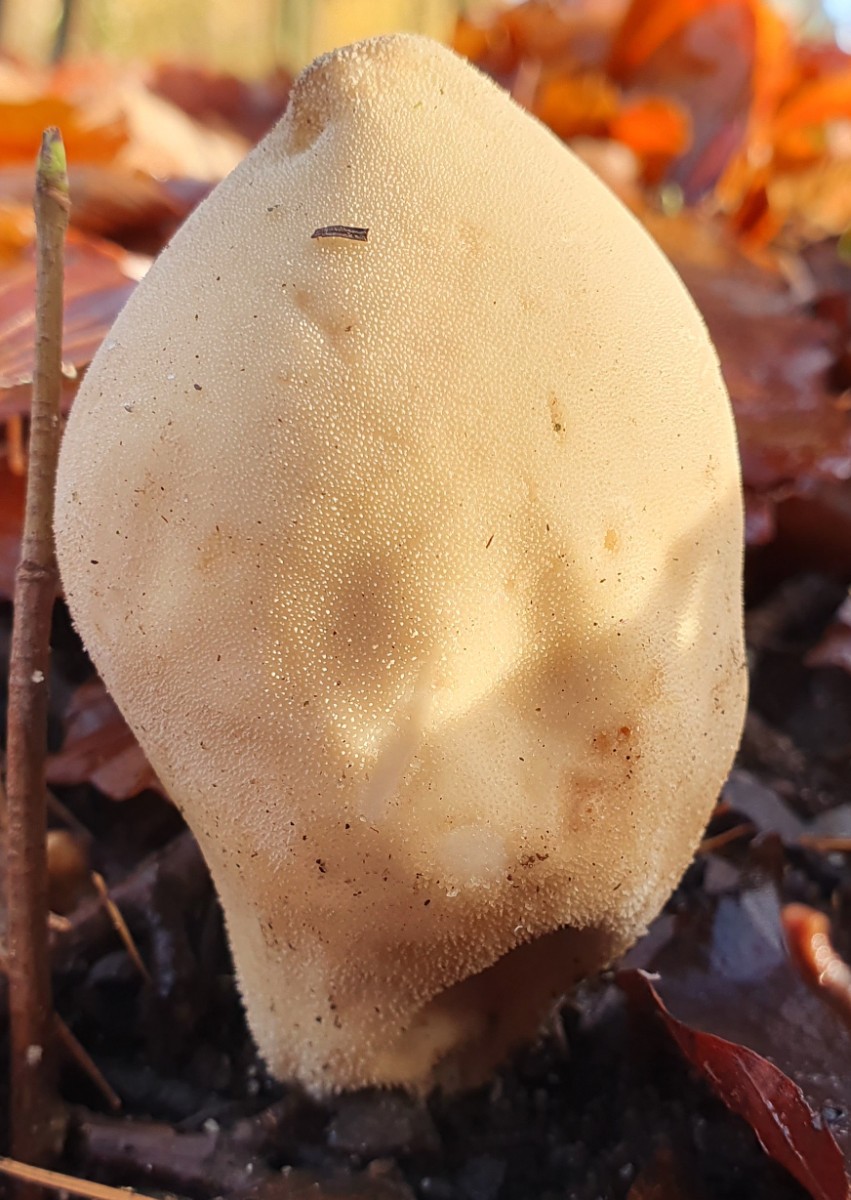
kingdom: Fungi
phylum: Basidiomycota
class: Agaricomycetes
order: Agaricales
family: Lycoperdaceae
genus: Apioperdon
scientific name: Apioperdon pyriforme
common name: pære-støvbold
